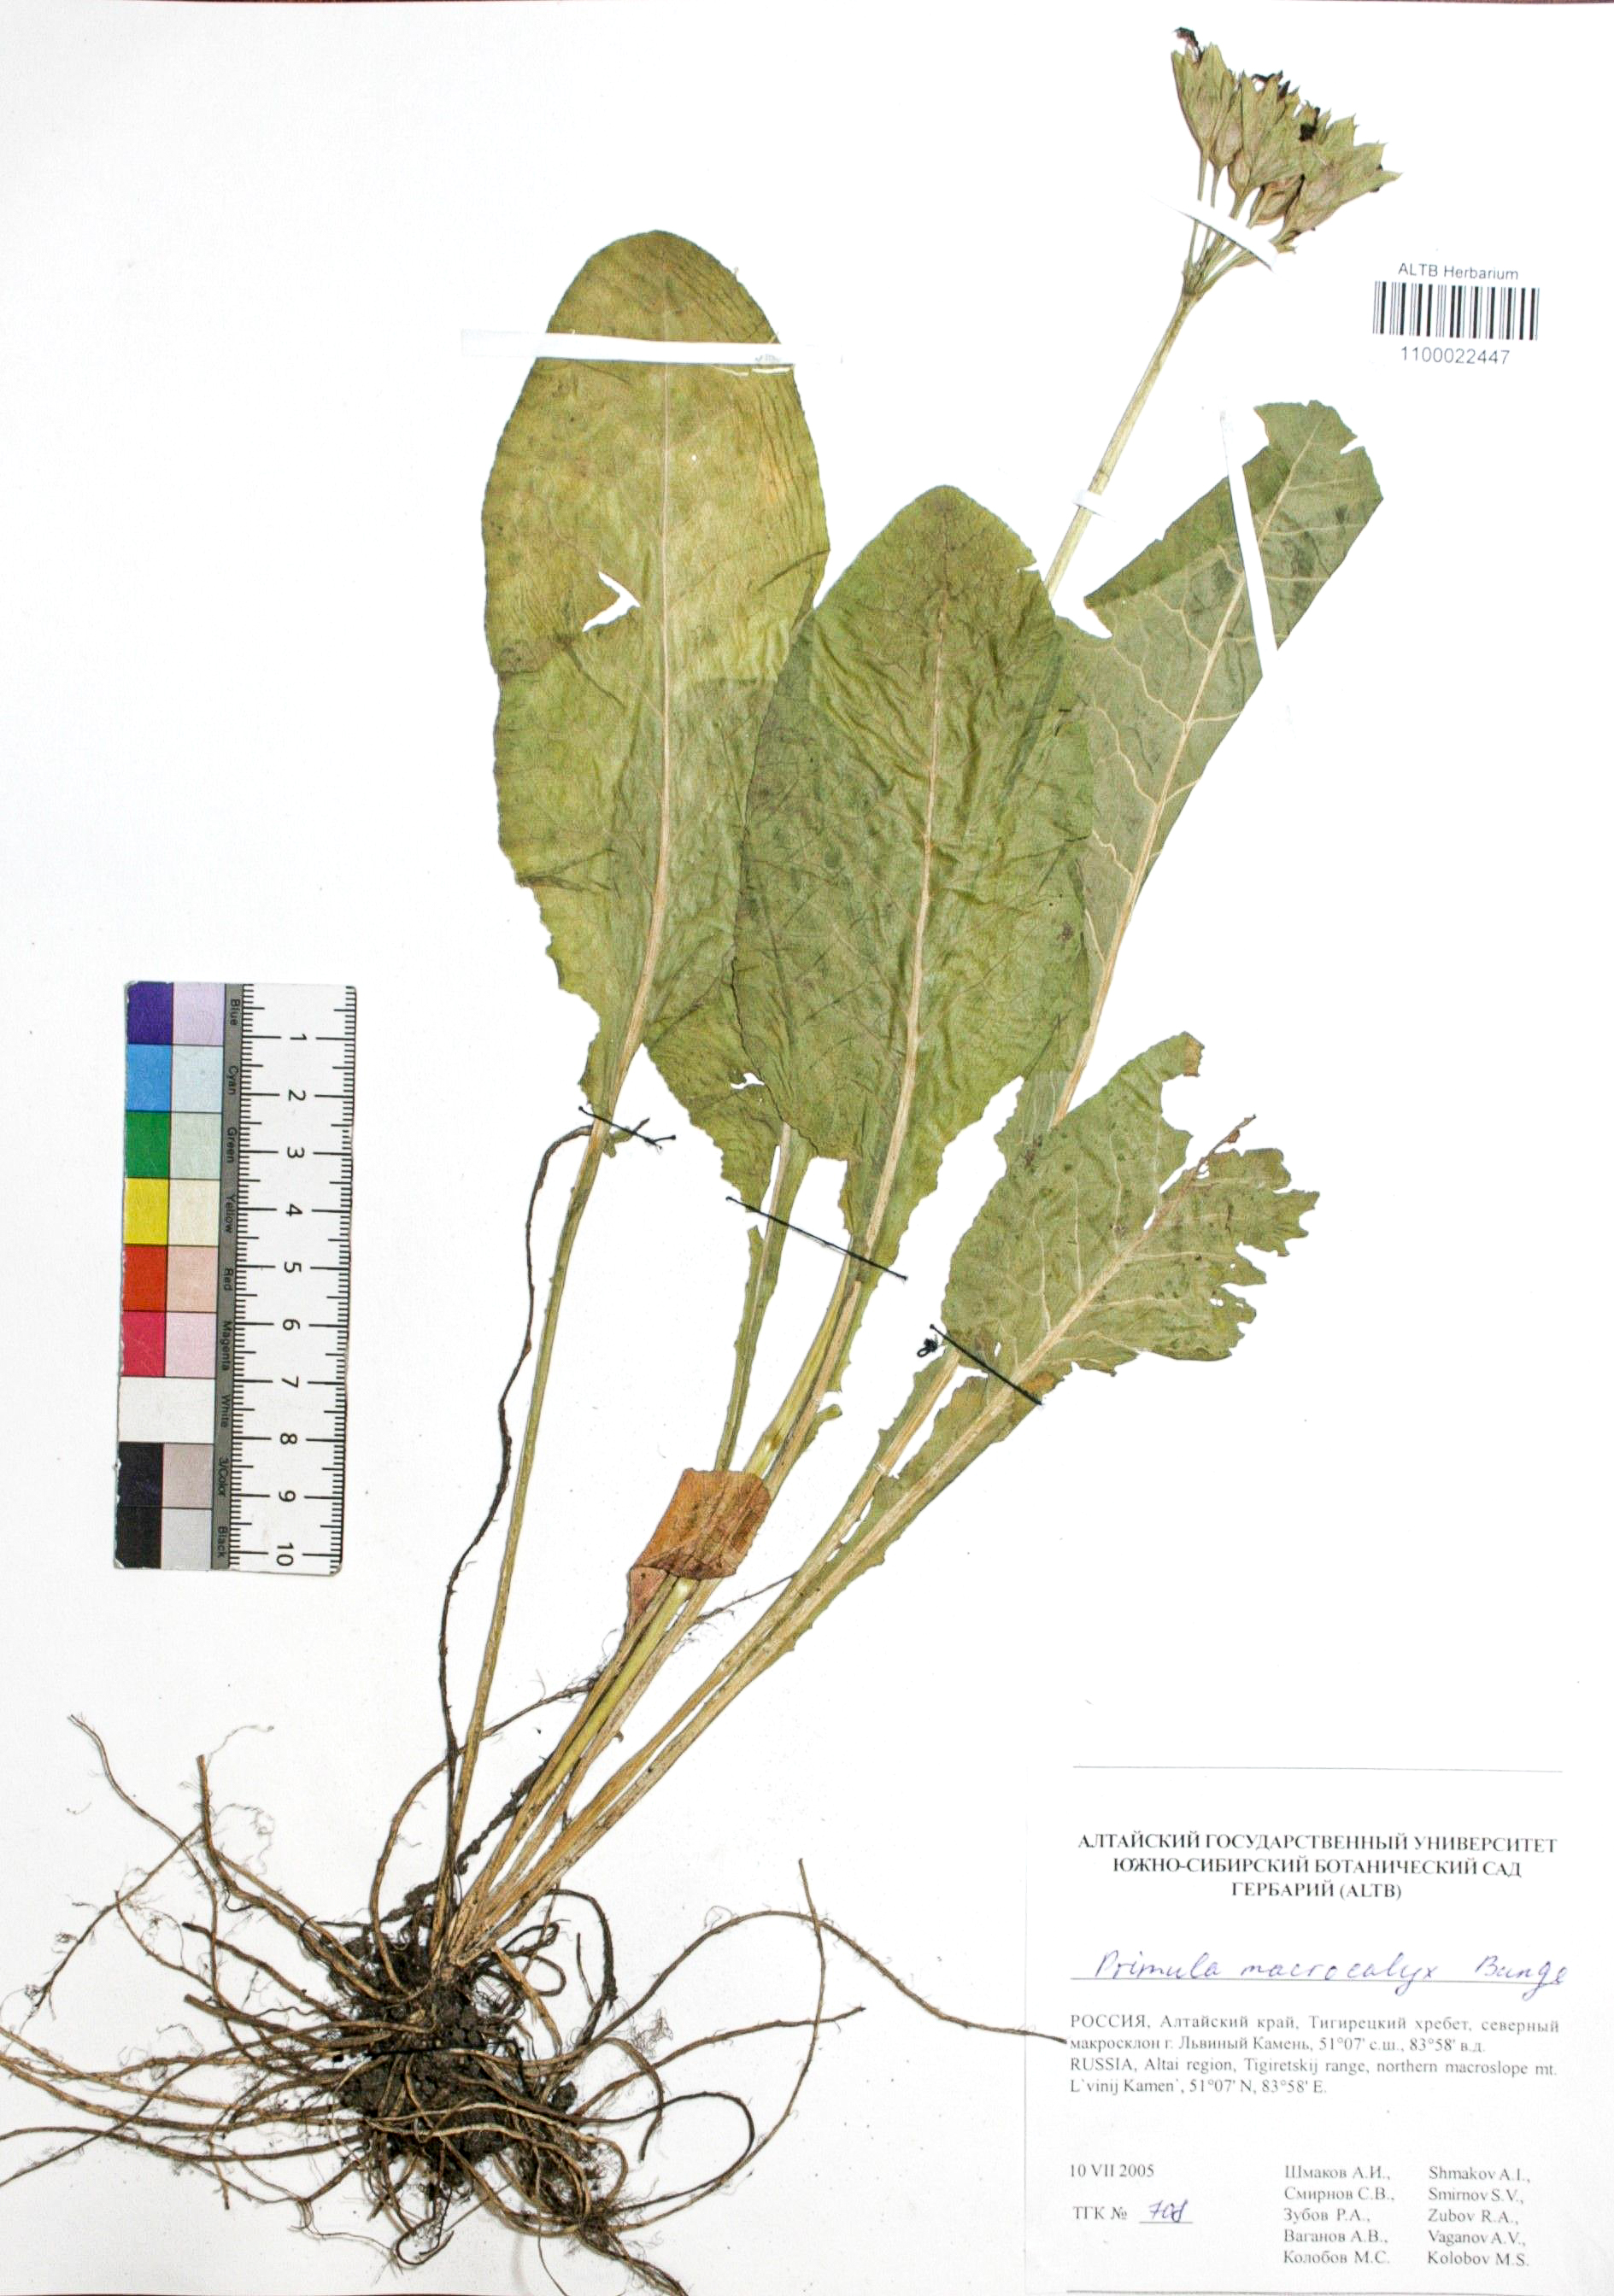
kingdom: Plantae
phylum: Tracheophyta
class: Magnoliopsida
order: Ericales
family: Primulaceae
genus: Primula
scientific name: Primula veris
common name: Cowslip
